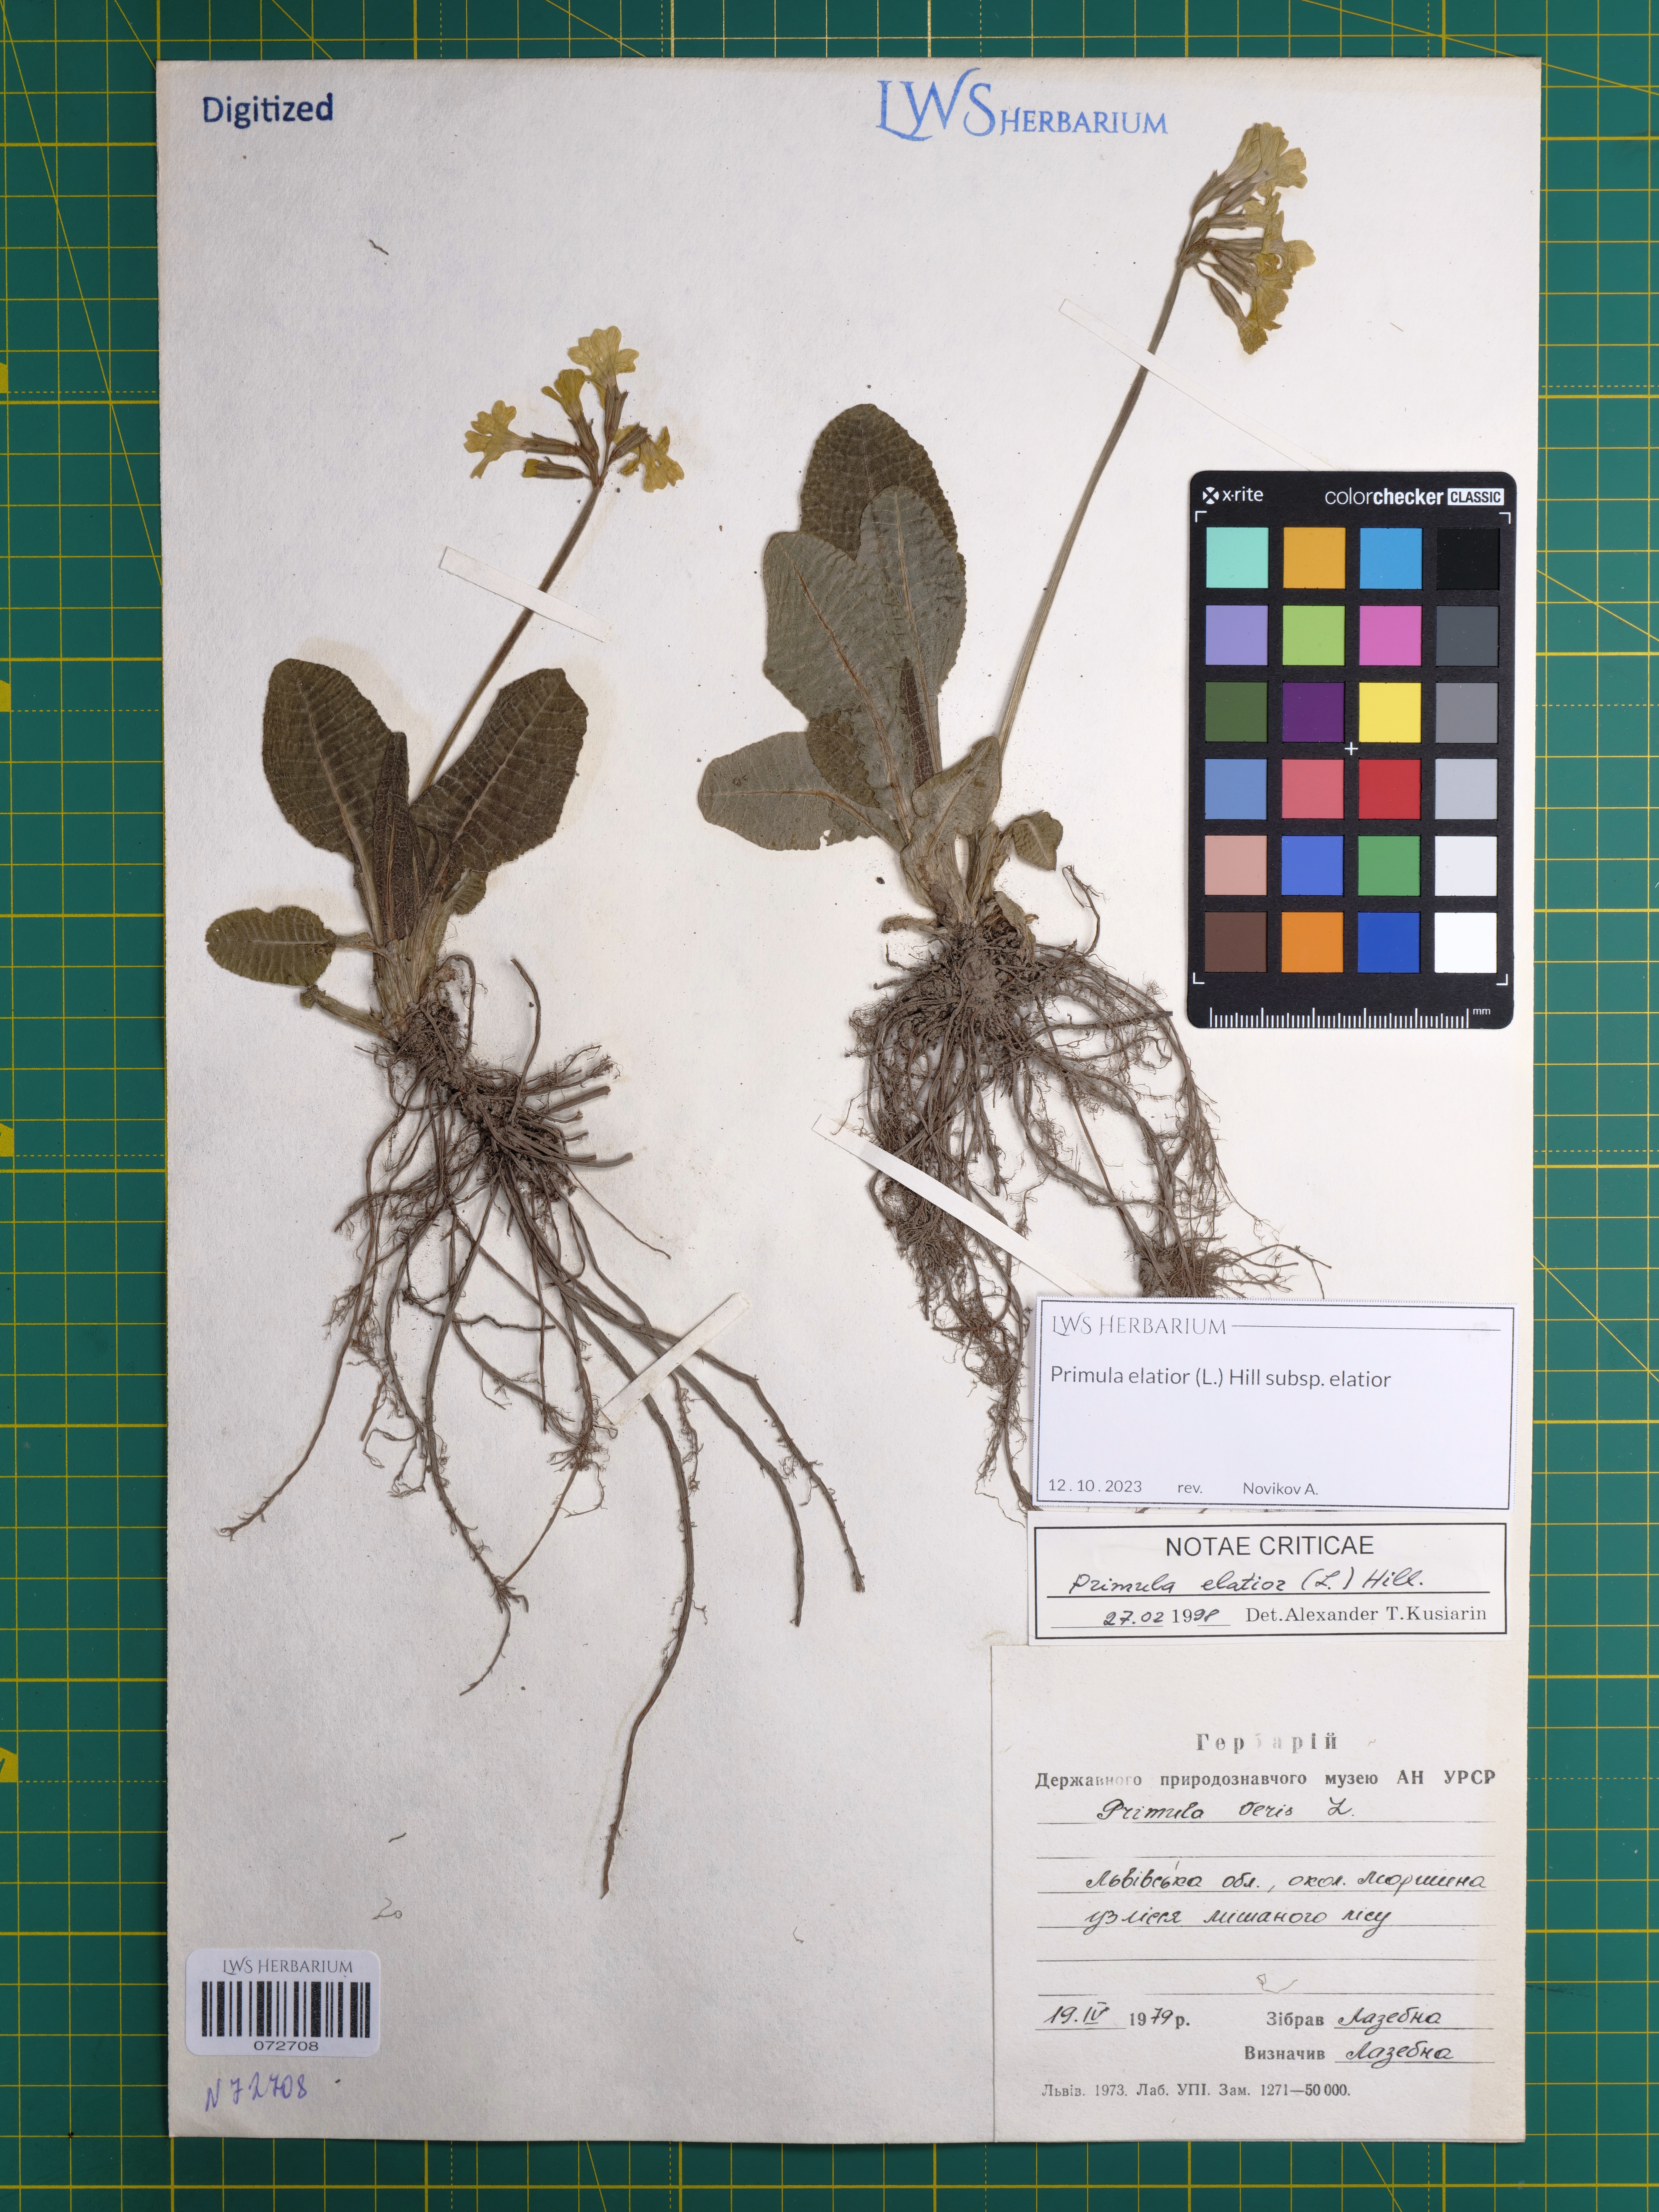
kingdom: Plantae
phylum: Tracheophyta
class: Magnoliopsida
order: Ericales
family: Primulaceae
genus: Primula
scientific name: Primula elatior
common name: Oxlip
